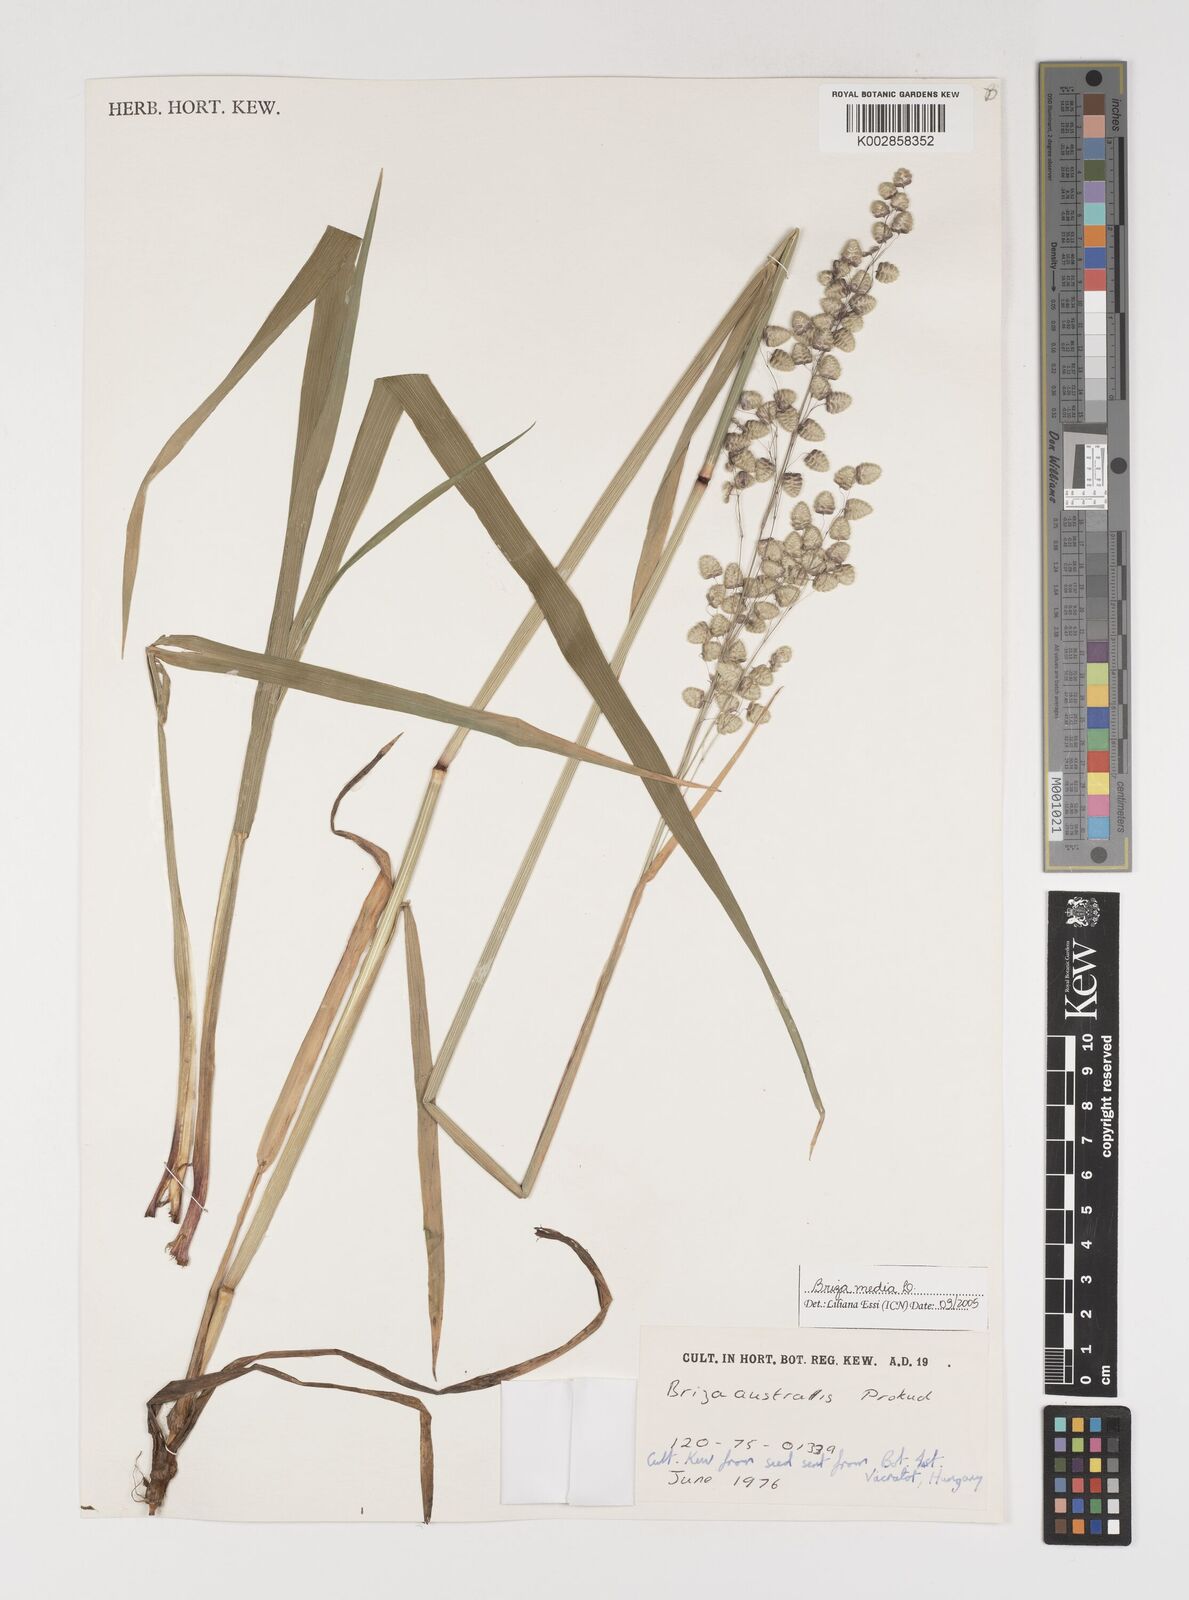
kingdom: Plantae
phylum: Tracheophyta
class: Liliopsida
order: Poales
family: Poaceae
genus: Briza
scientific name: Briza media
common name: Quaking grass
